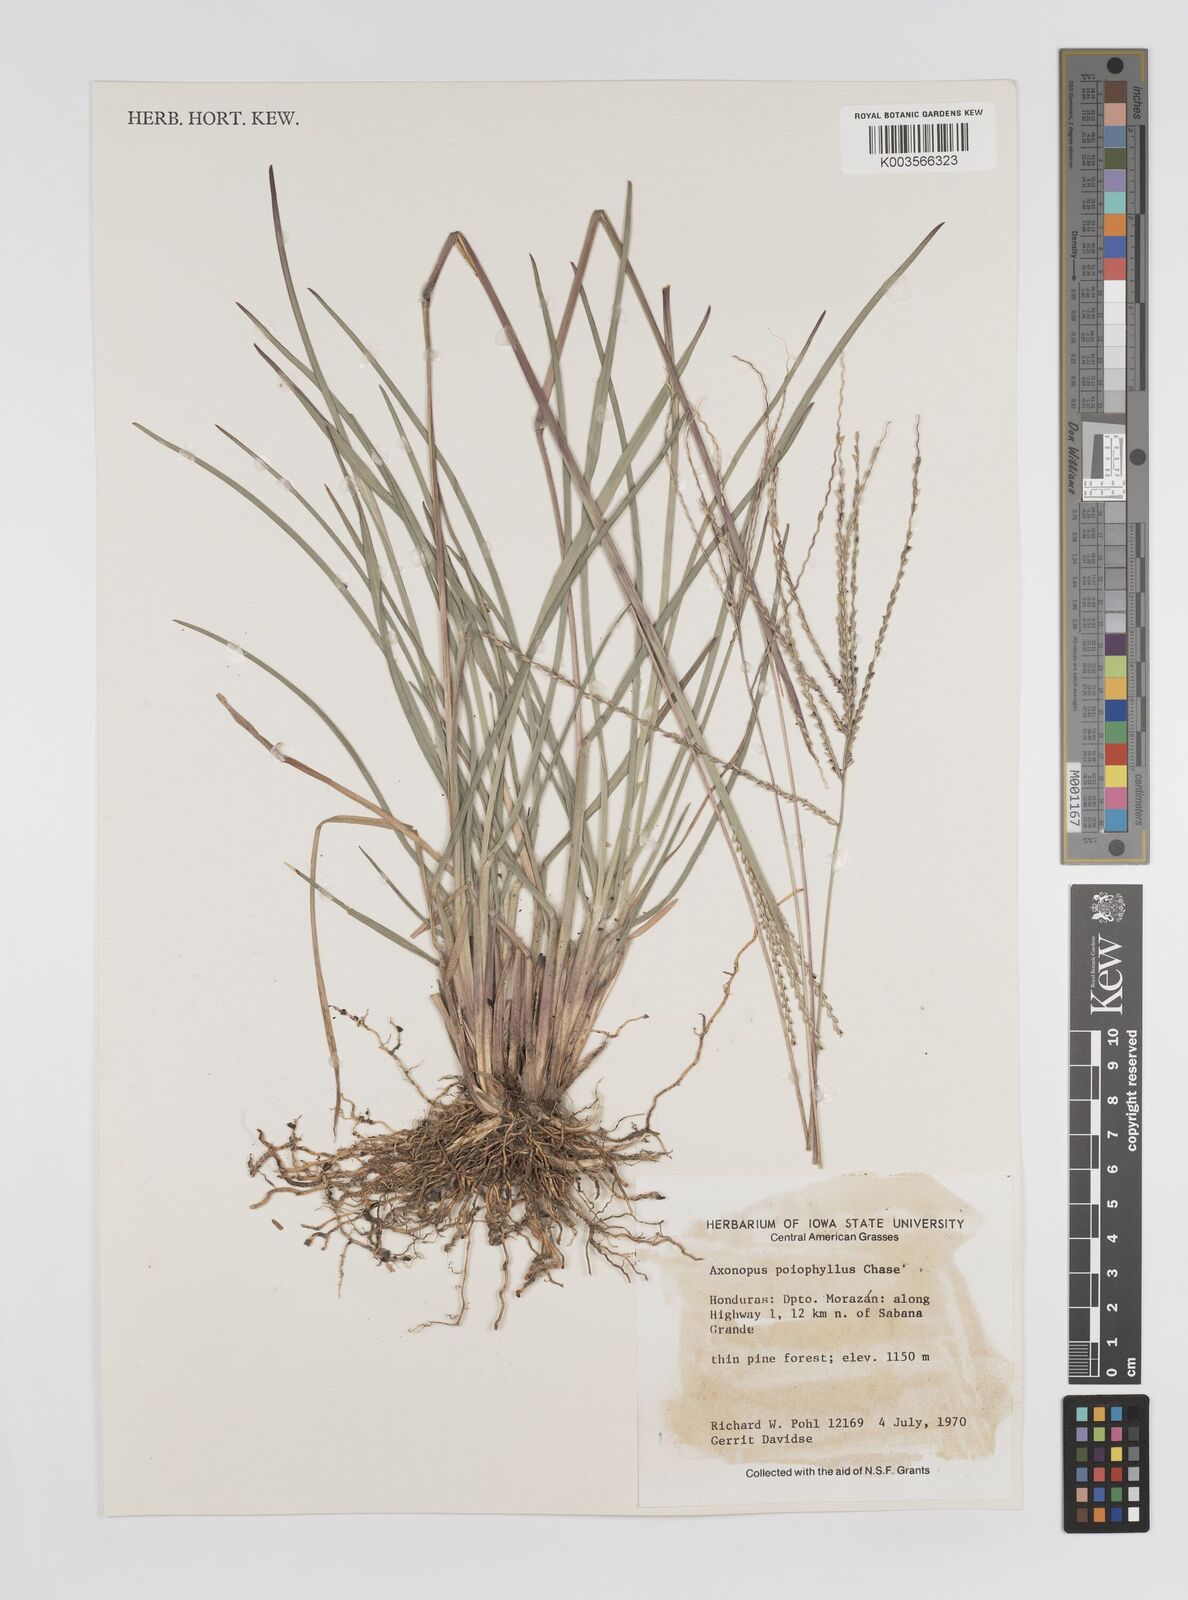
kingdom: Plantae
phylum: Tracheophyta
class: Liliopsida
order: Poales
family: Poaceae
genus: Axonopus
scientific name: Axonopus
